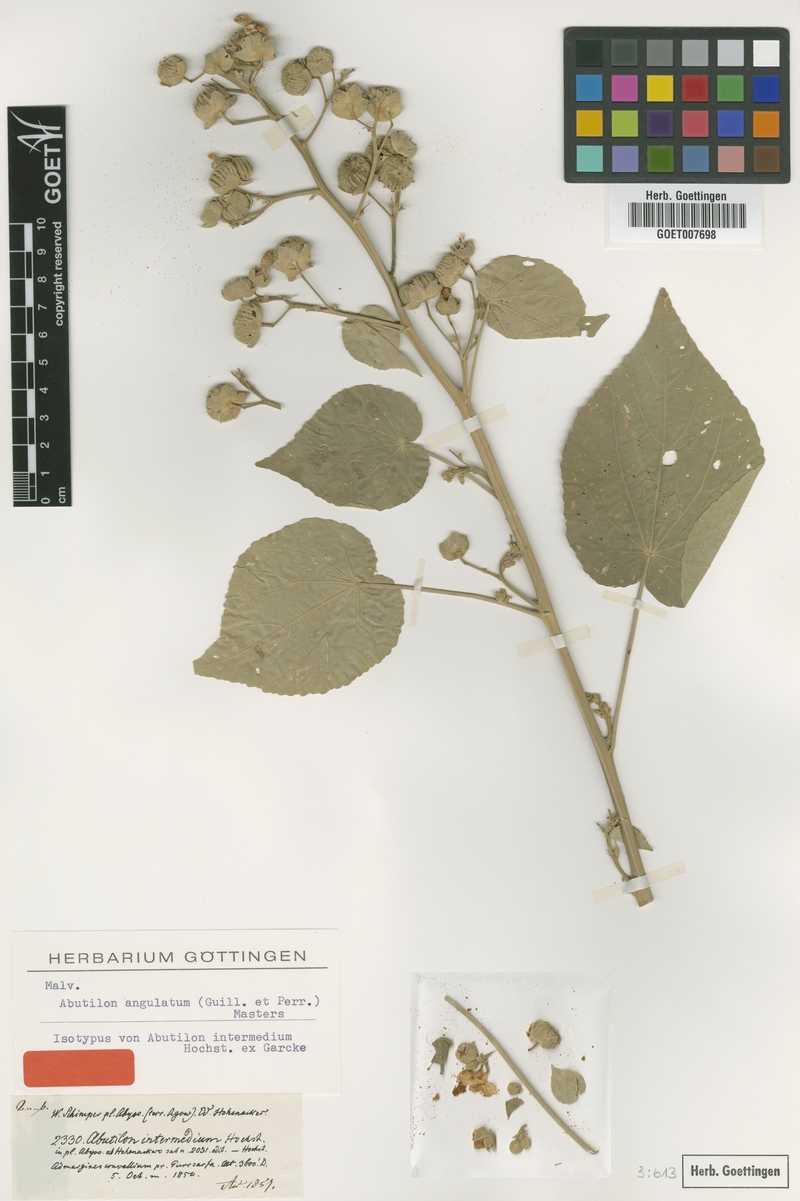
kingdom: Plantae
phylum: Tracheophyta
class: Magnoliopsida
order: Malvales
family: Malvaceae
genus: Abutilon
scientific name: Abutilon angulatum
